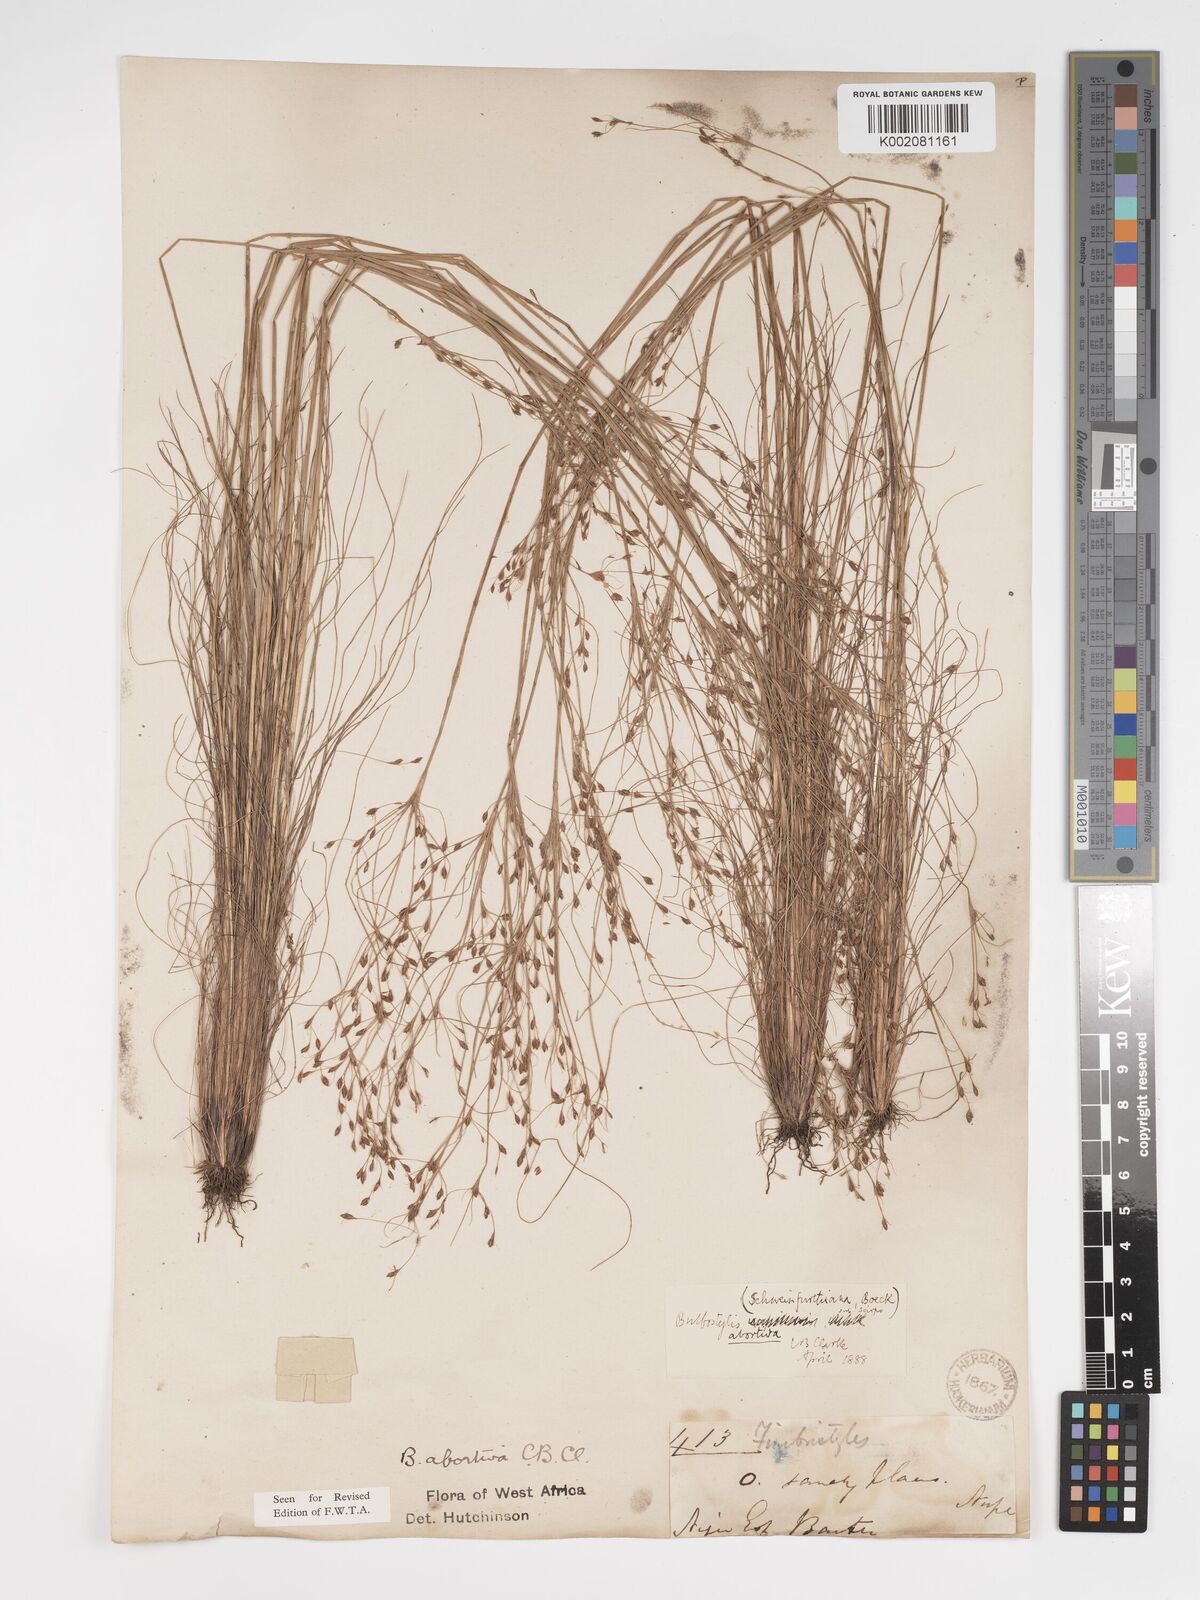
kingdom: Plantae
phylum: Tracheophyta
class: Liliopsida
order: Poales
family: Cyperaceae
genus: Bulbostylis
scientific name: Bulbostylis abortiva
